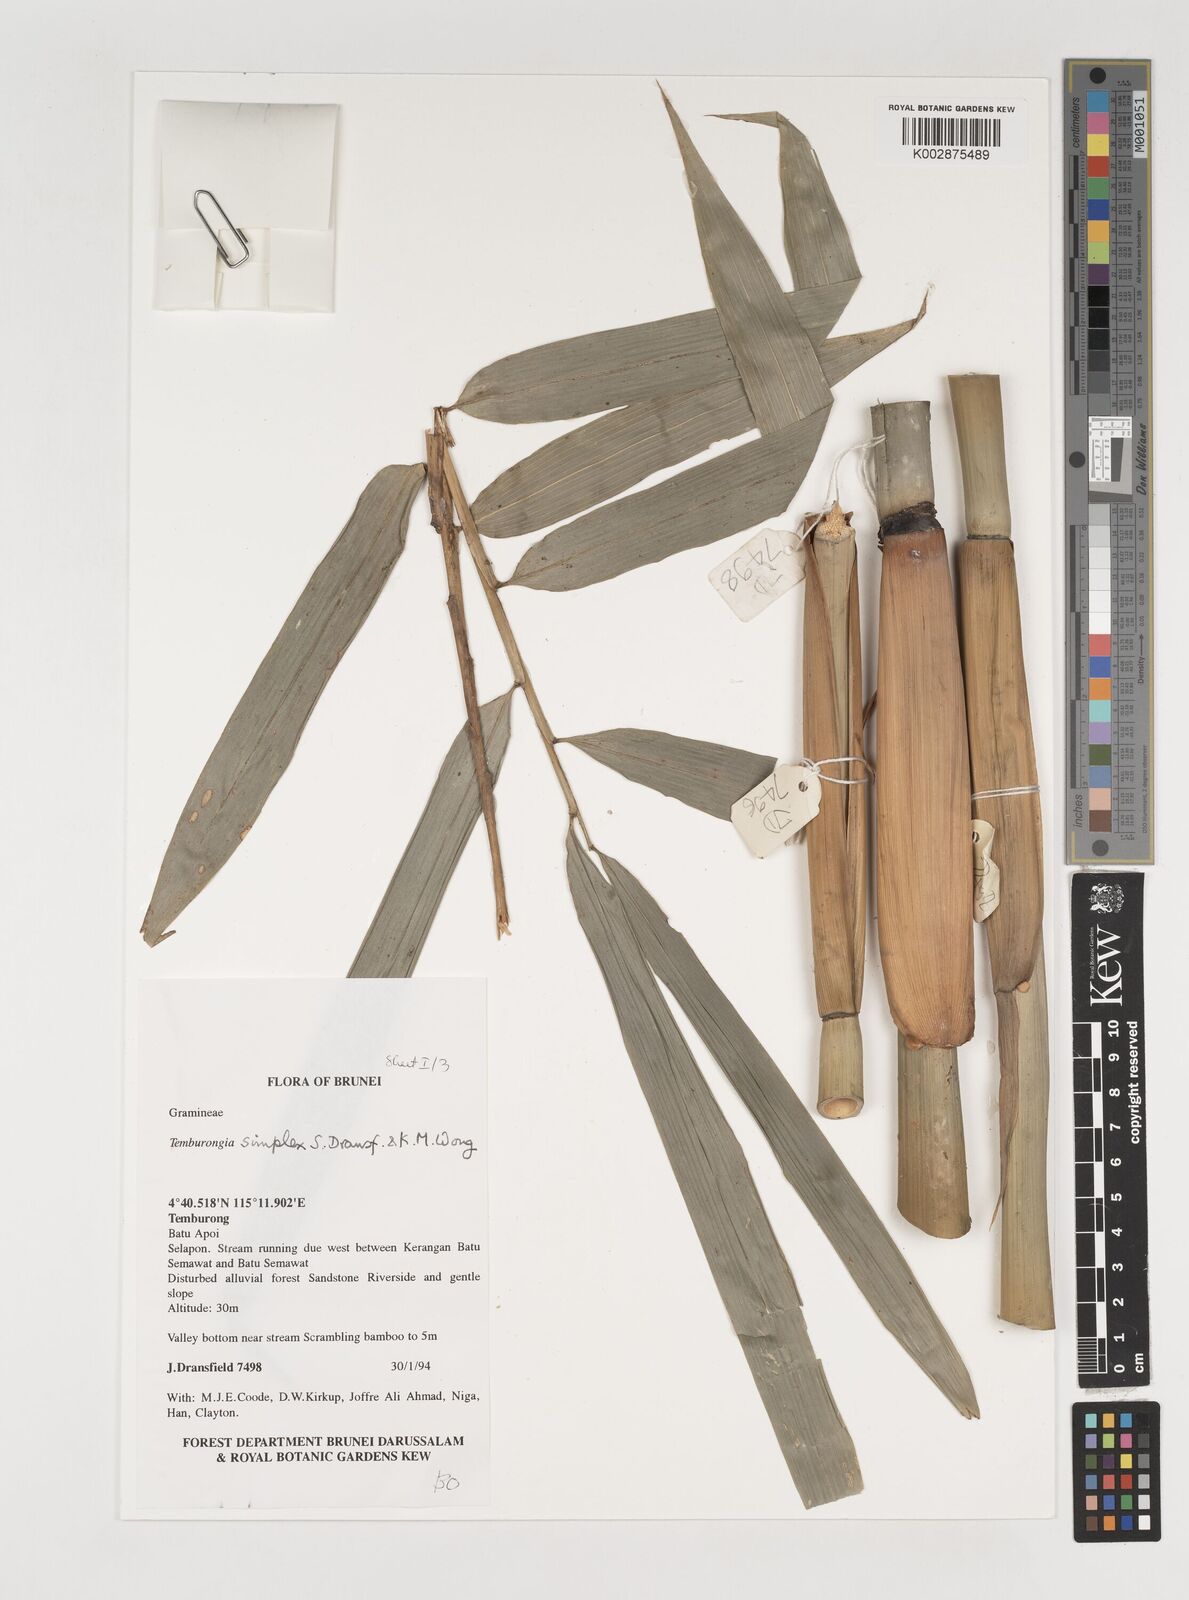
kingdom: Plantae
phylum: Tracheophyta
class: Liliopsida
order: Poales
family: Poaceae
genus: Temburongia
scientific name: Temburongia
